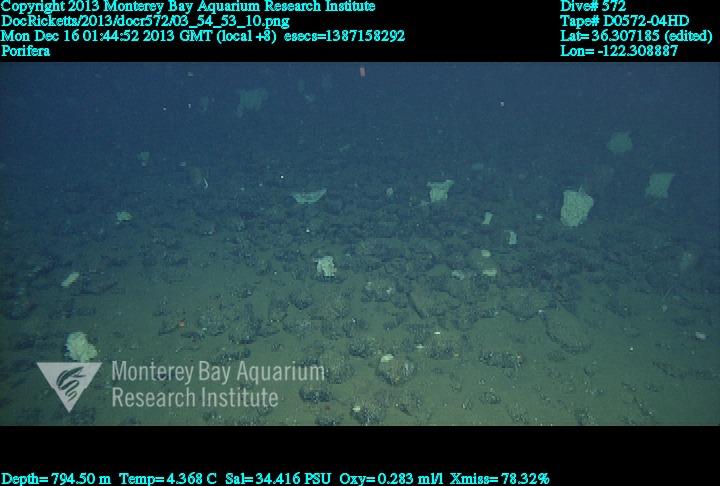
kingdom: Animalia
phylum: Porifera
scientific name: Porifera
